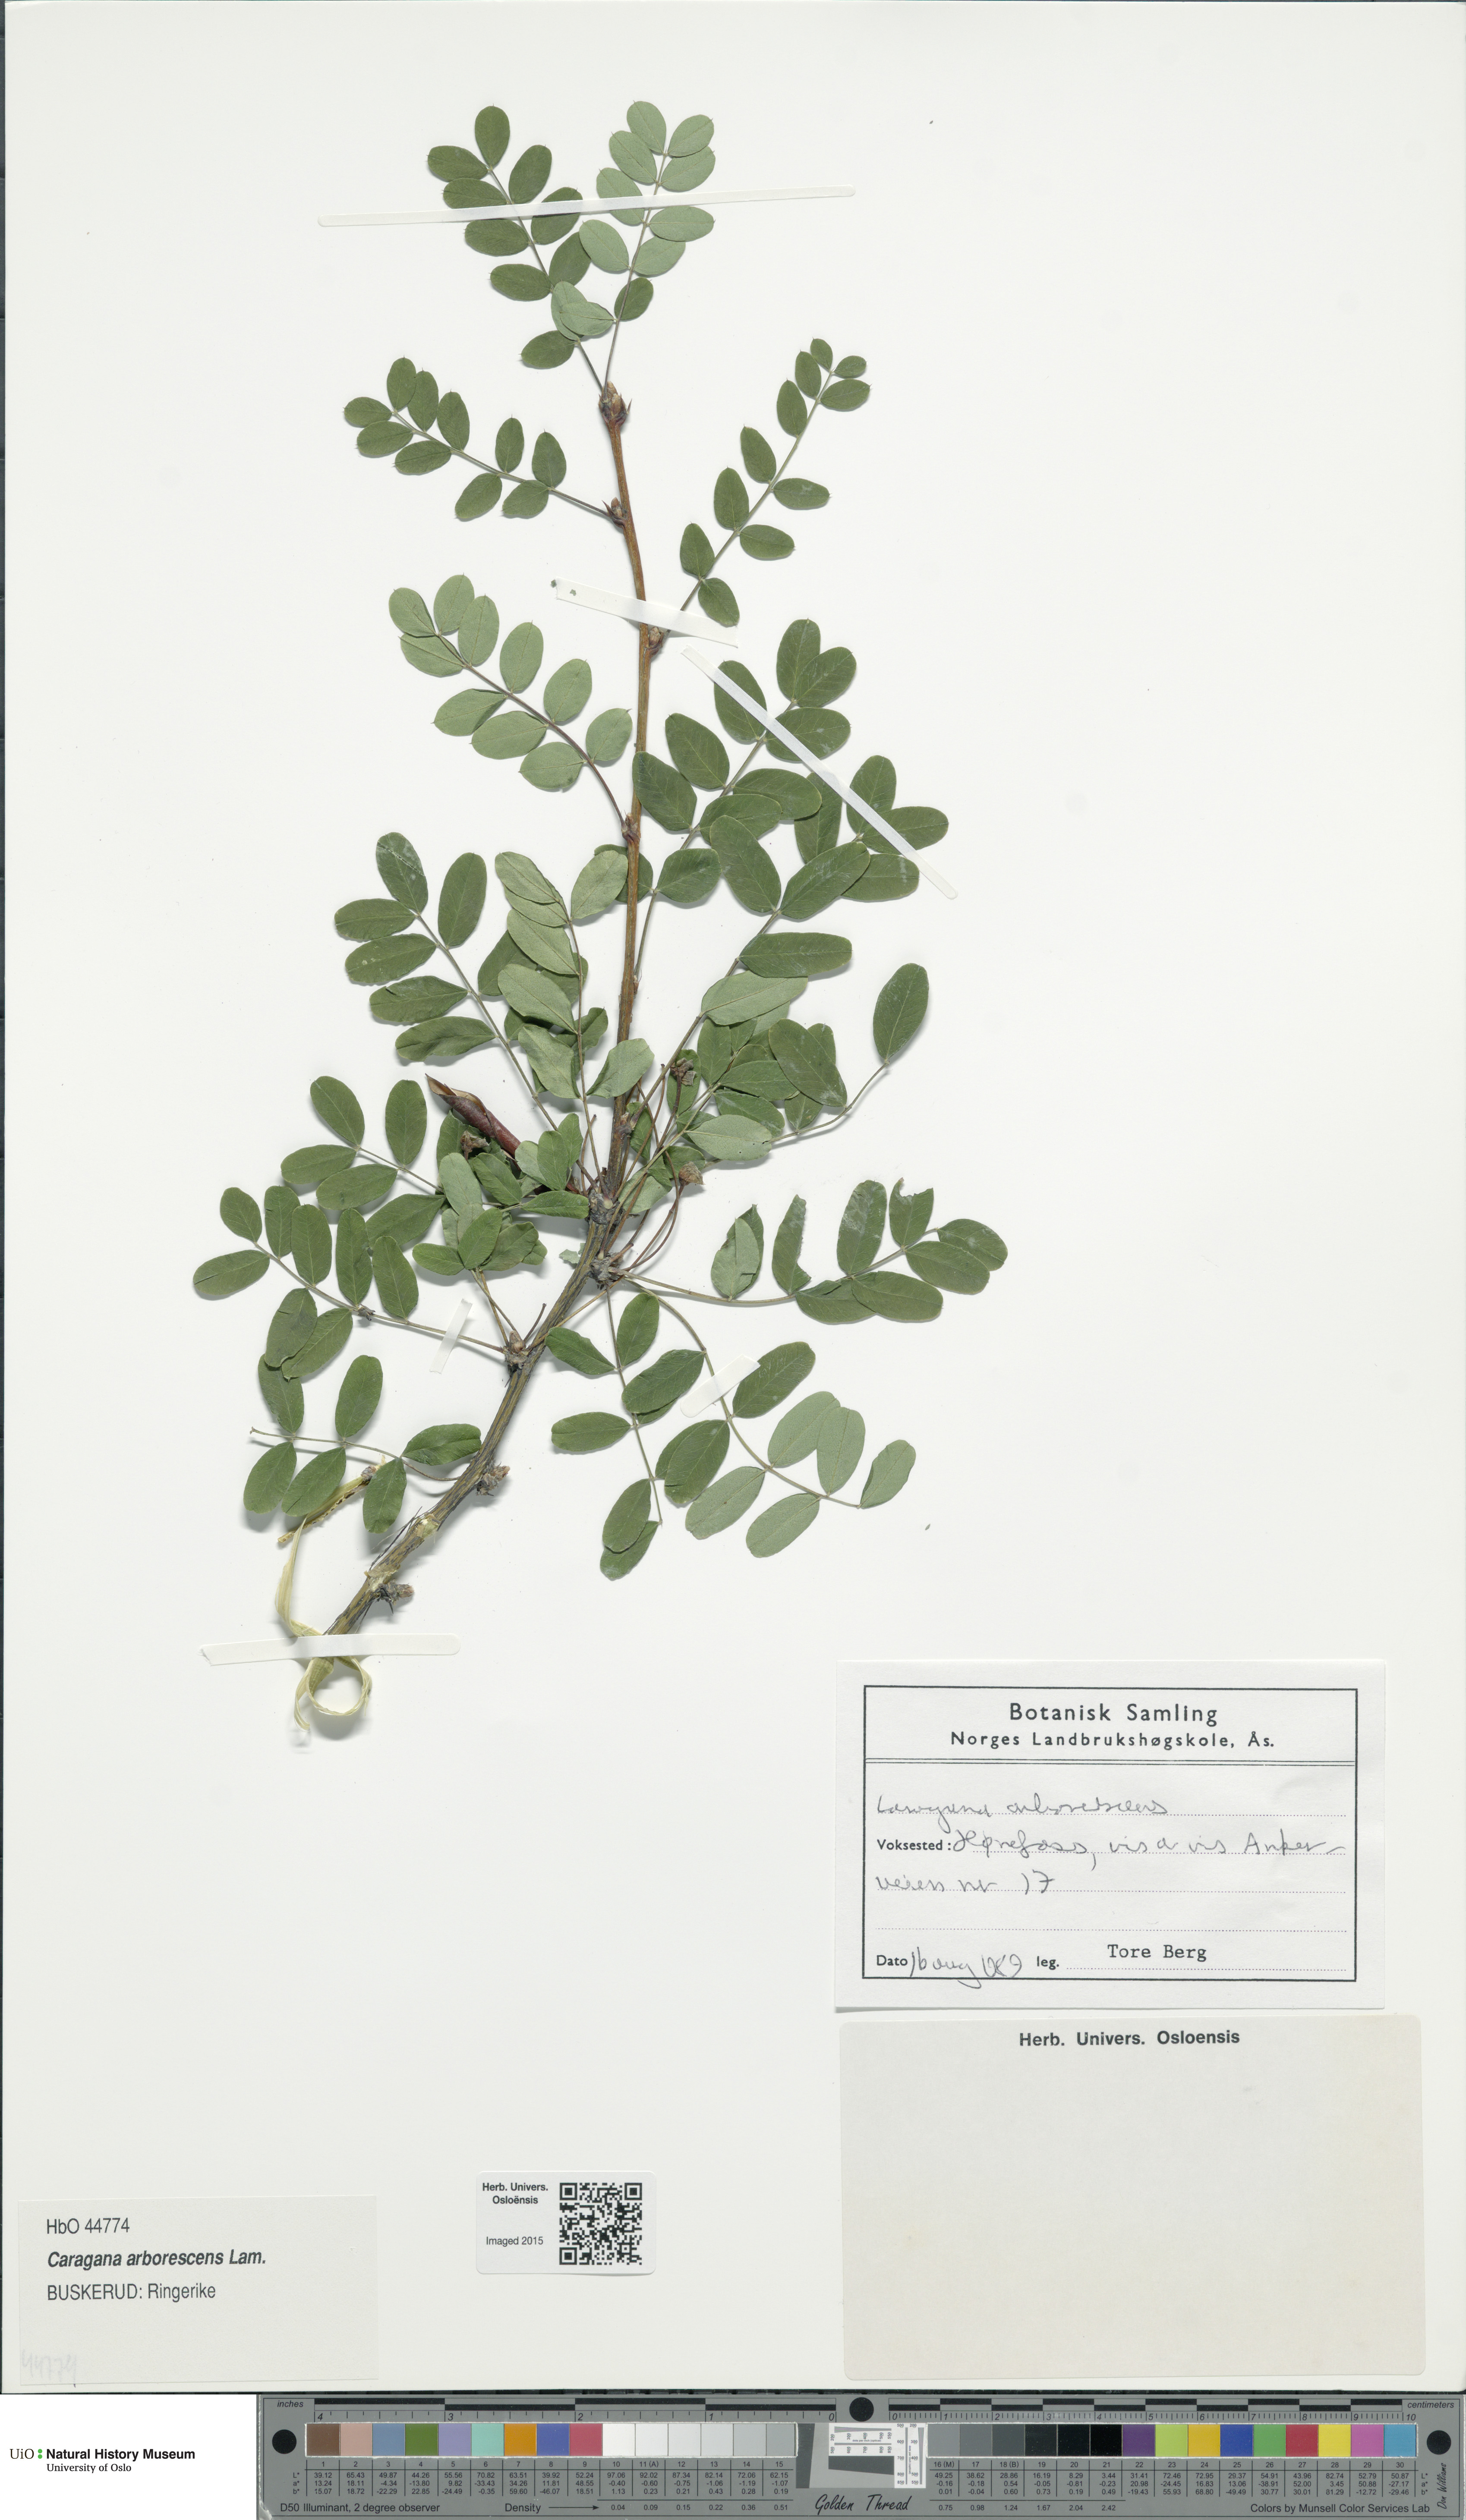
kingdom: Plantae
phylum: Tracheophyta
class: Magnoliopsida
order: Fabales
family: Fabaceae
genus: Caragana
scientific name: Caragana arborescens
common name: Siberian peashrub
